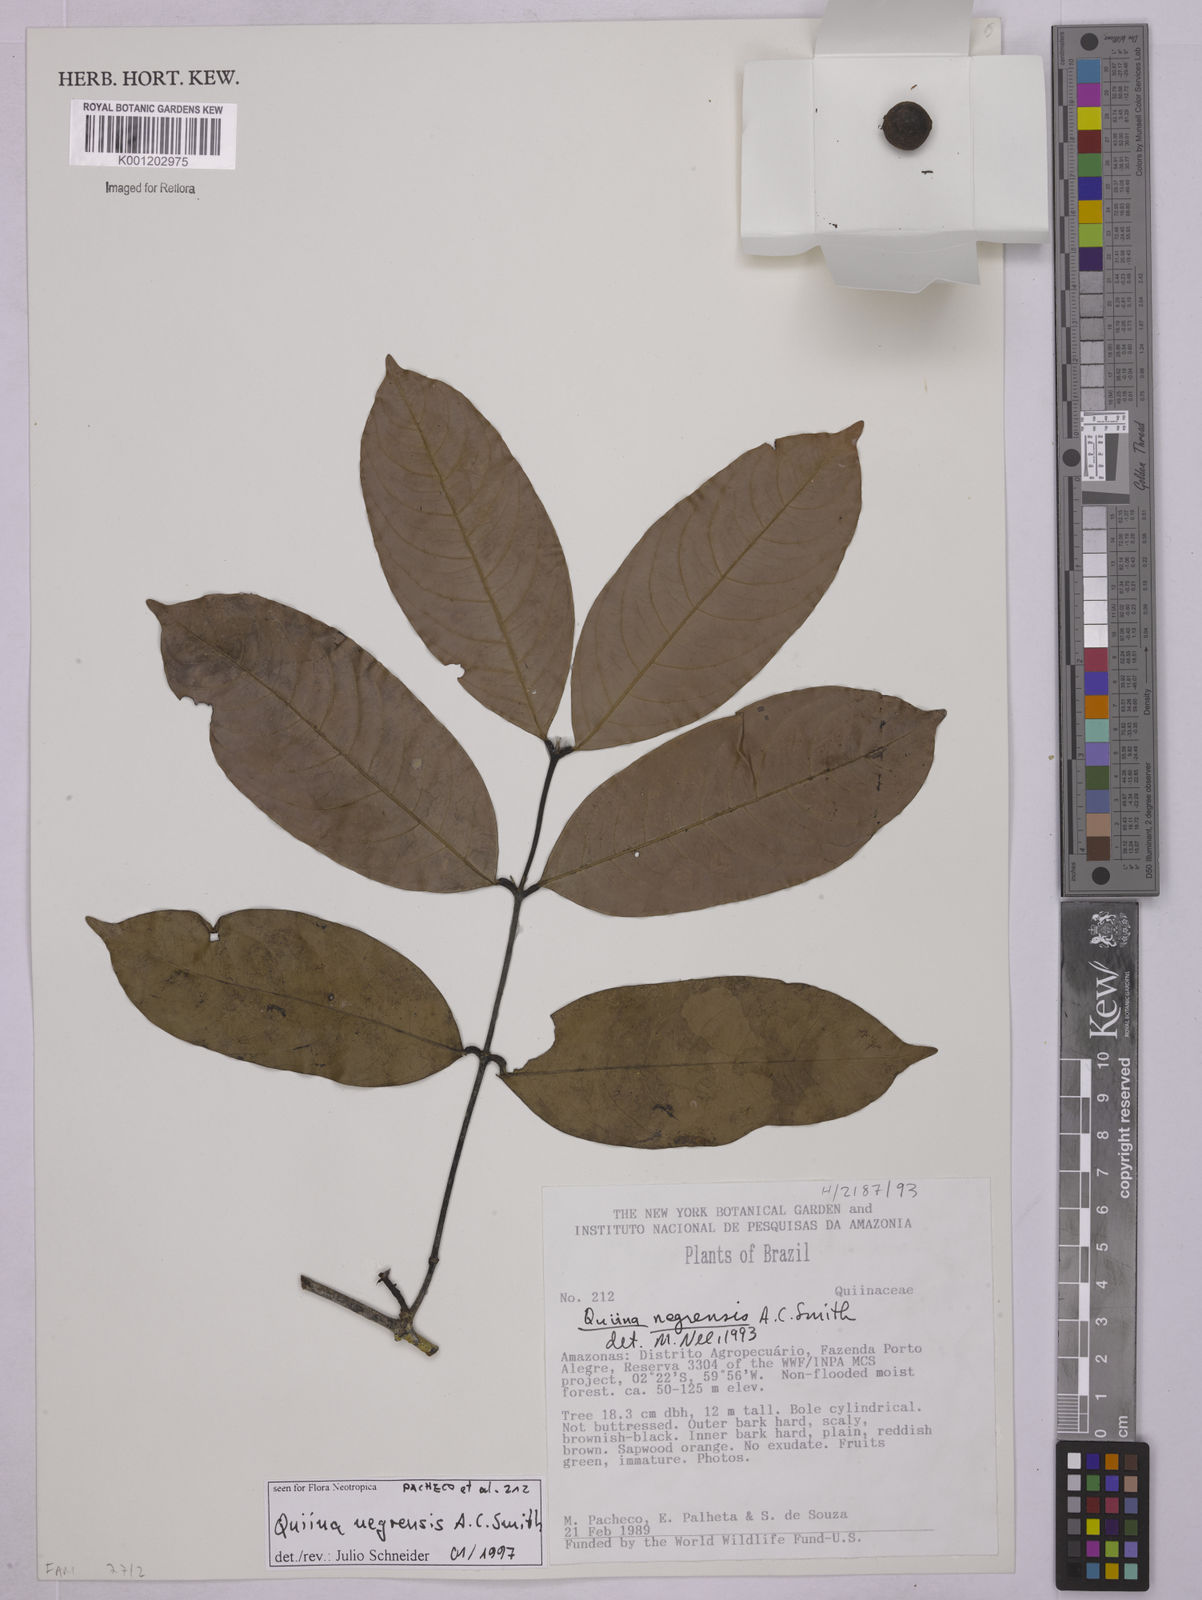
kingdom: Plantae
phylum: Tracheophyta
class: Magnoliopsida
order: Malpighiales
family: Quiinaceae
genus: Quiina
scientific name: Quiina negrensis
